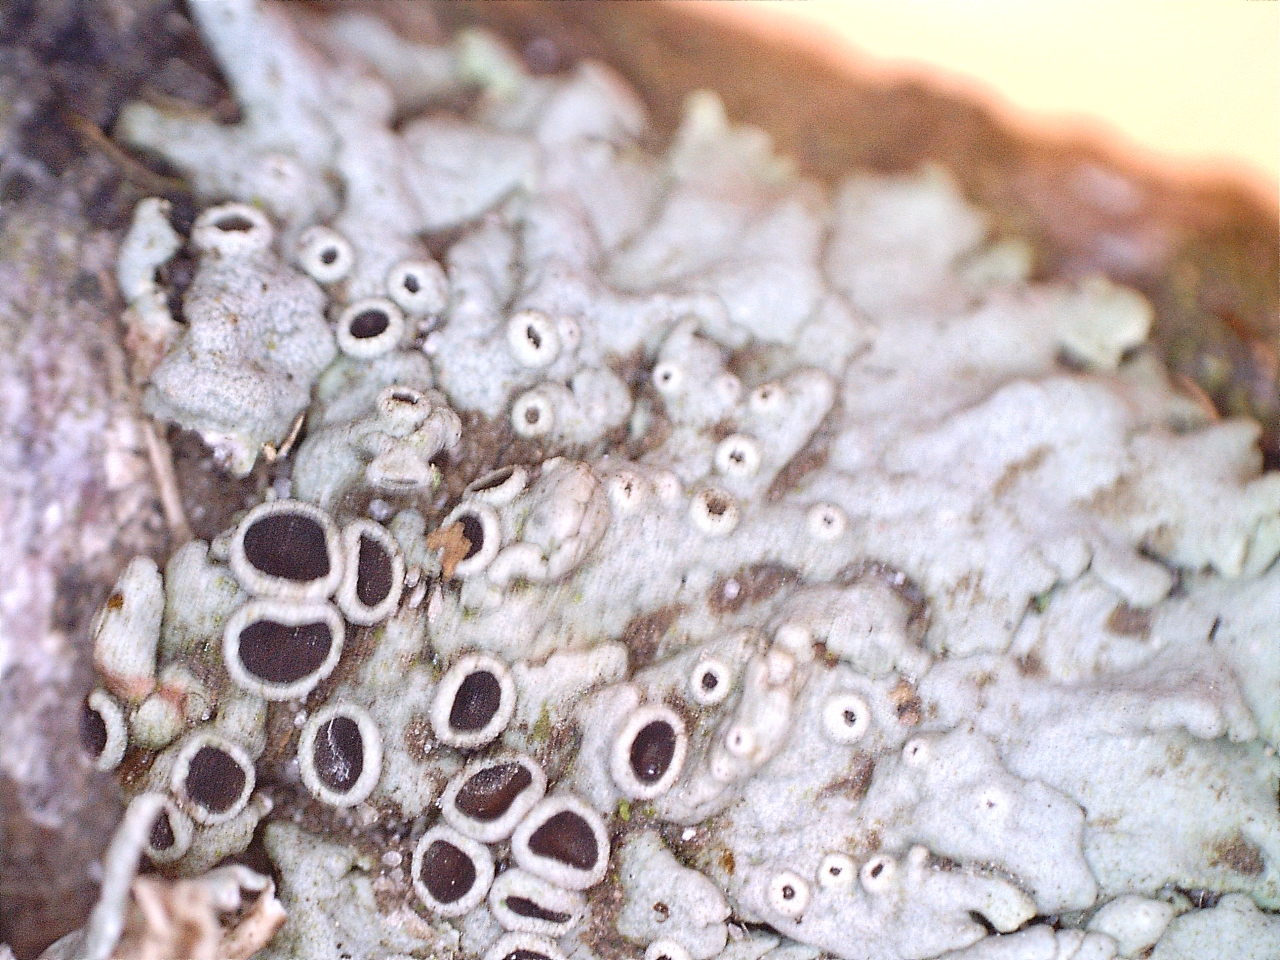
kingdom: Fungi
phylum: Ascomycota
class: Lecanoromycetes
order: Caliciales
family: Physciaceae
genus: Physcia
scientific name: Physcia aipolia
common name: hvidprikket rosetlav
